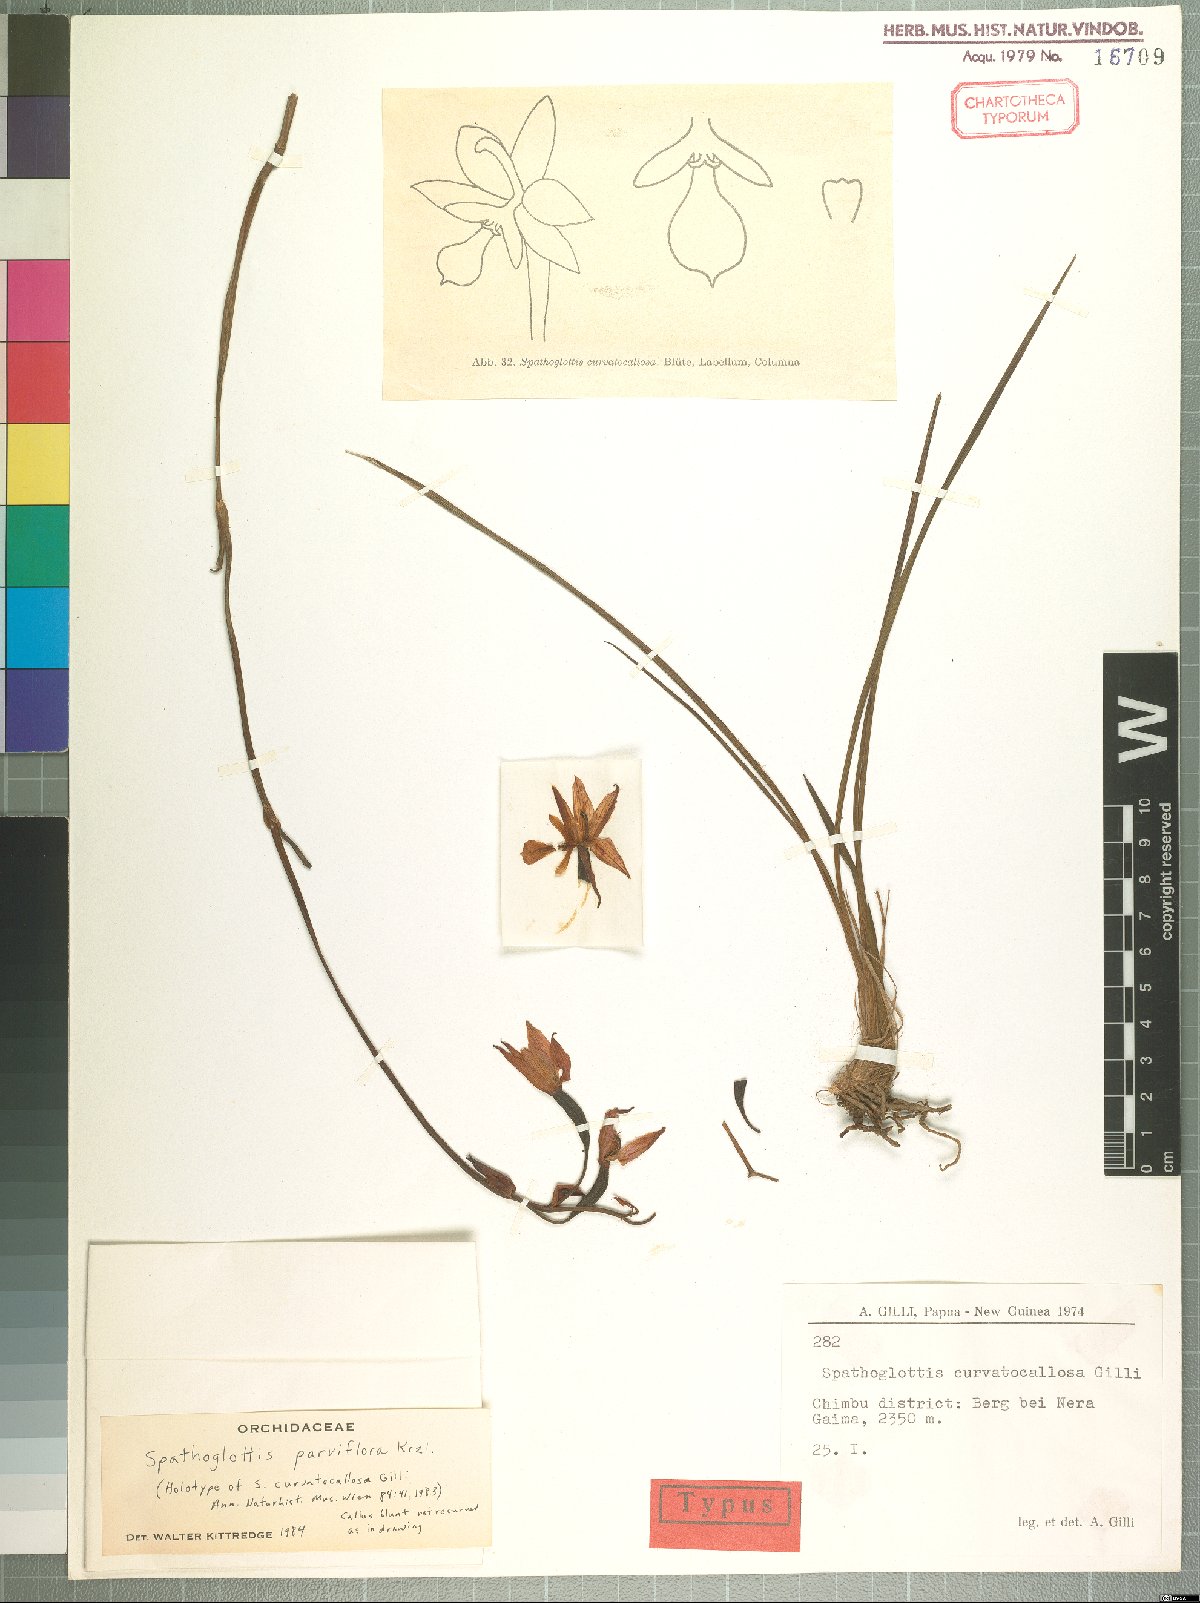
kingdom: Plantae
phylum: Tracheophyta
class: Liliopsida
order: Asparagales
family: Orchidaceae
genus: Spathoglottis
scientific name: Spathoglottis parviflora
